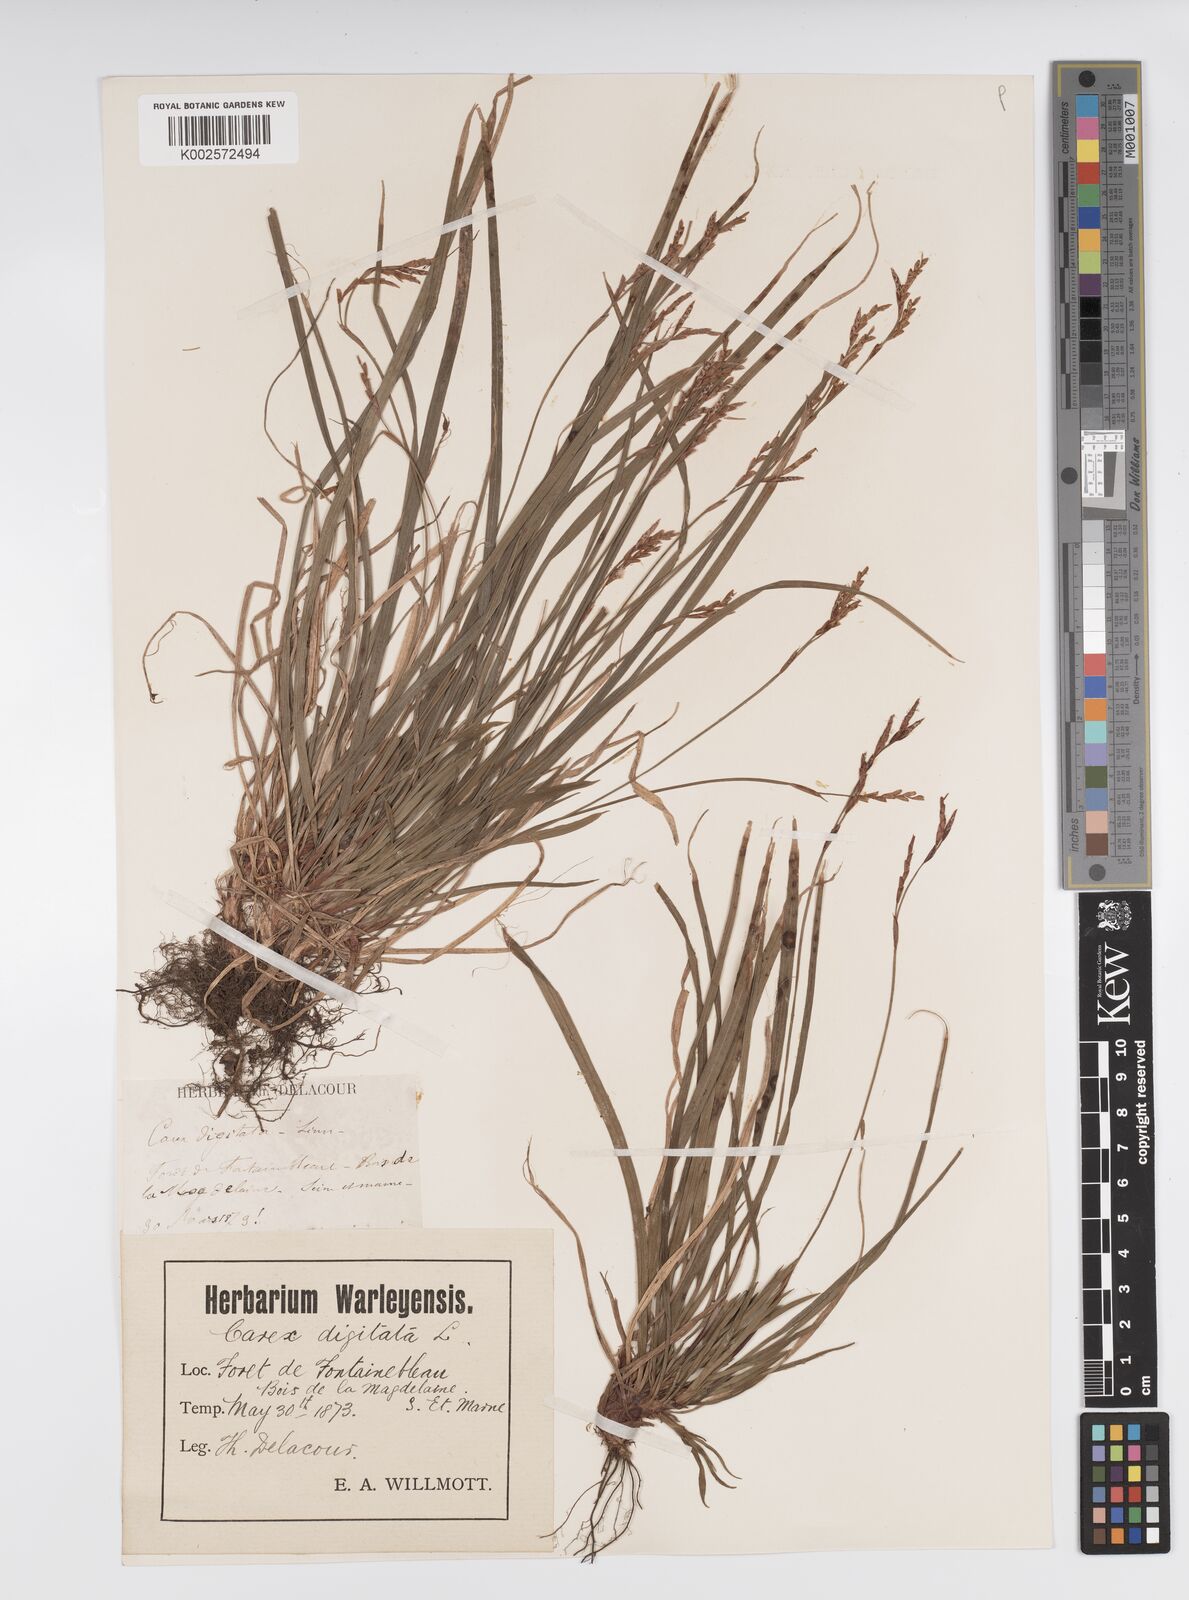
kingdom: Plantae
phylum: Tracheophyta
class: Liliopsida
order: Poales
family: Cyperaceae
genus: Carex
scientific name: Carex digitata
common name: Fingered sedge
